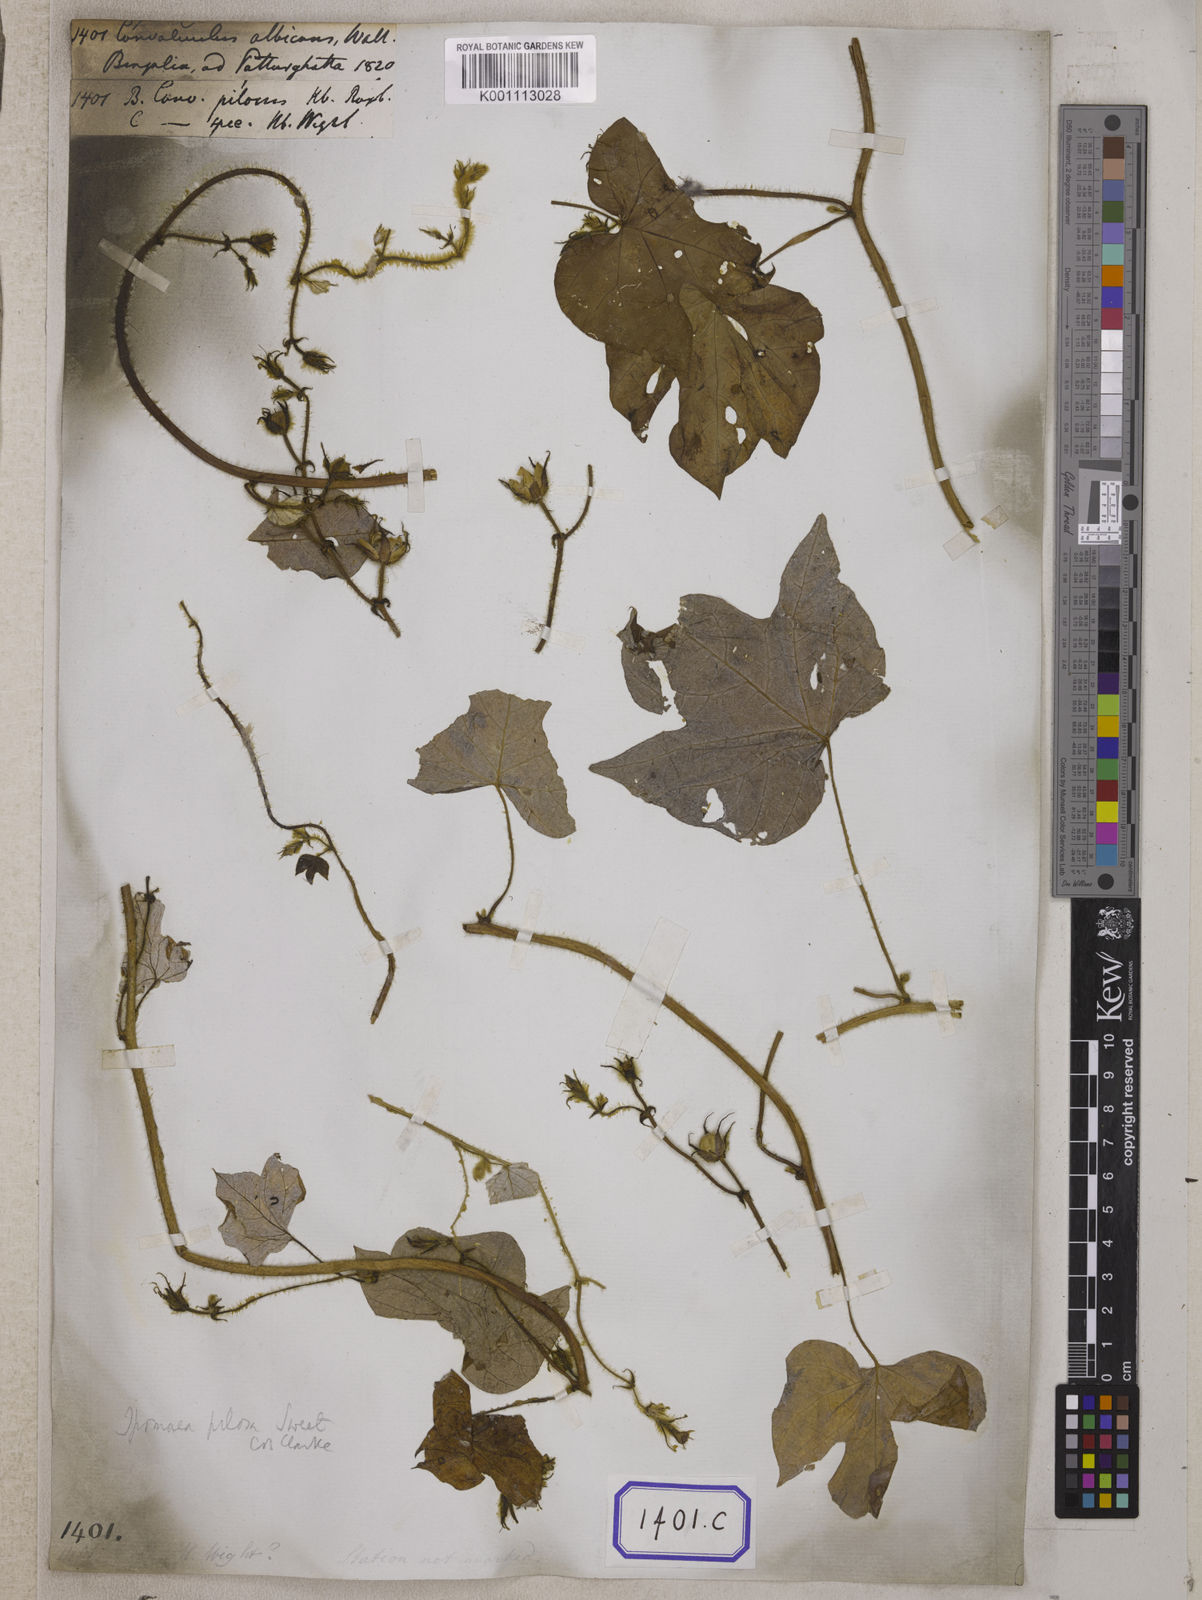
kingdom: Plantae
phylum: Tracheophyta
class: Magnoliopsida
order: Solanales
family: Convolvulaceae
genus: Convolvulus
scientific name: Convolvulus
